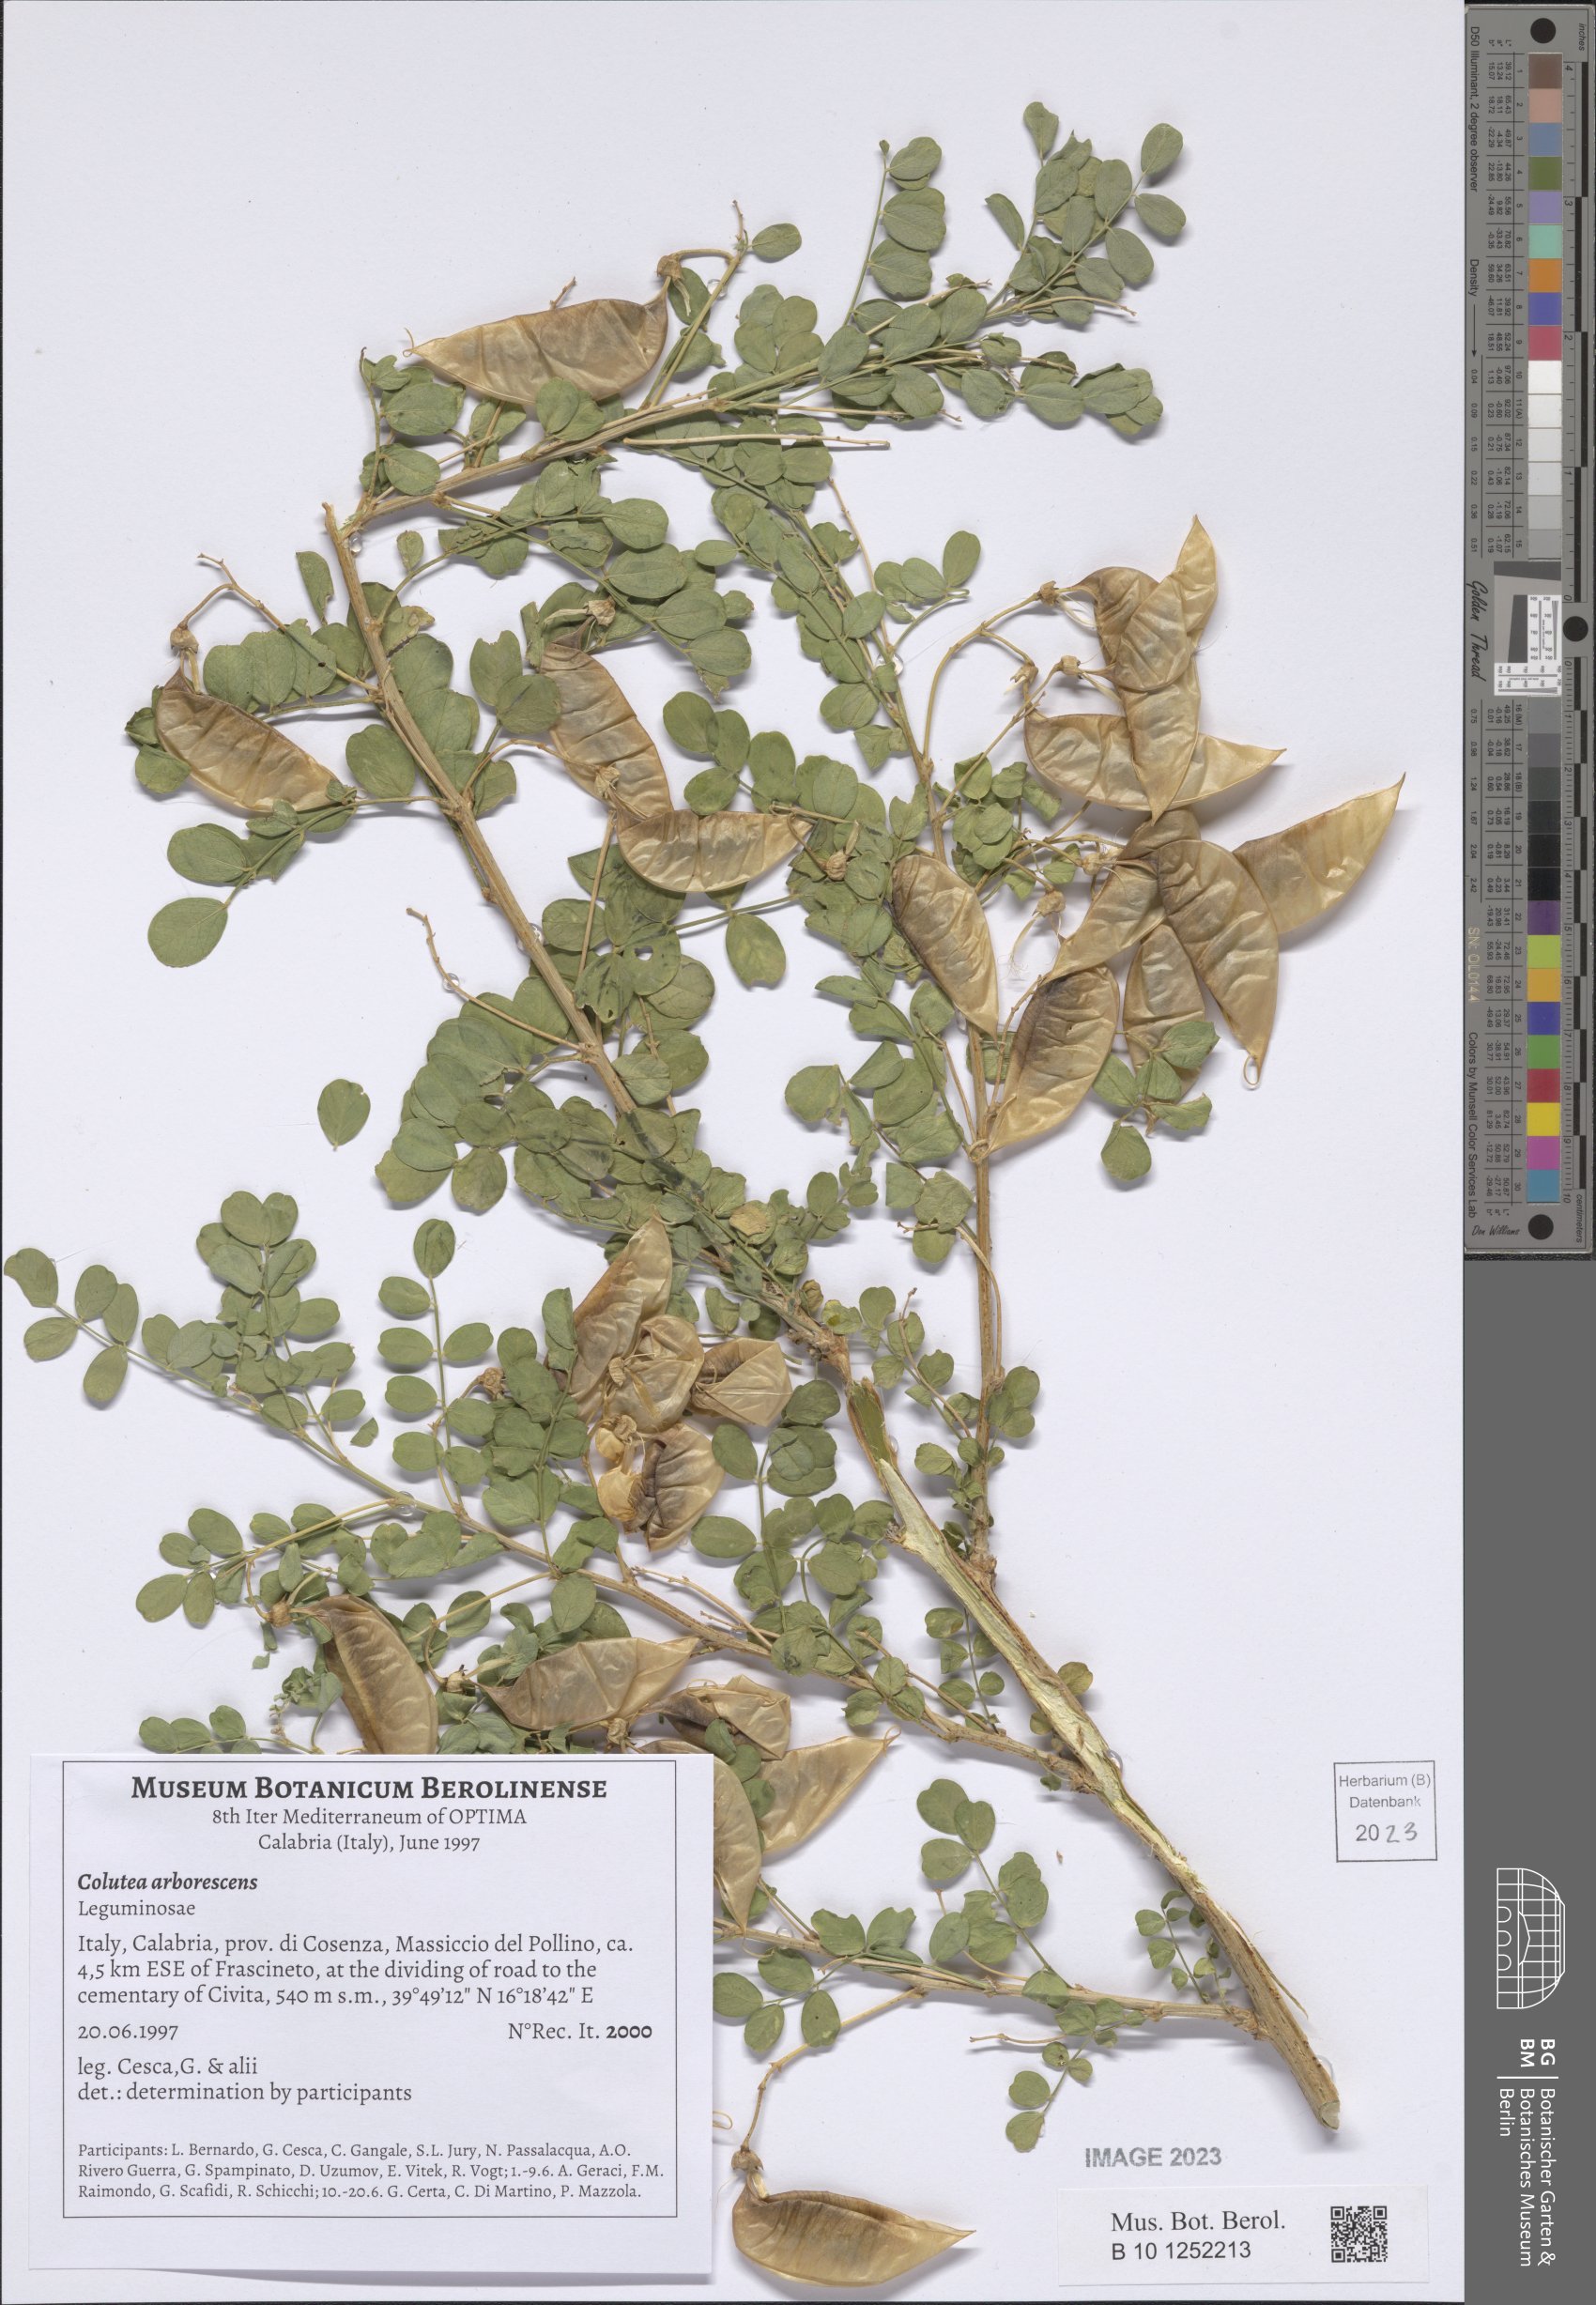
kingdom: Plantae
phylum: Tracheophyta
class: Magnoliopsida
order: Fabales
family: Fabaceae
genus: Colutea
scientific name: Colutea arborescens
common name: Bladder-senna
